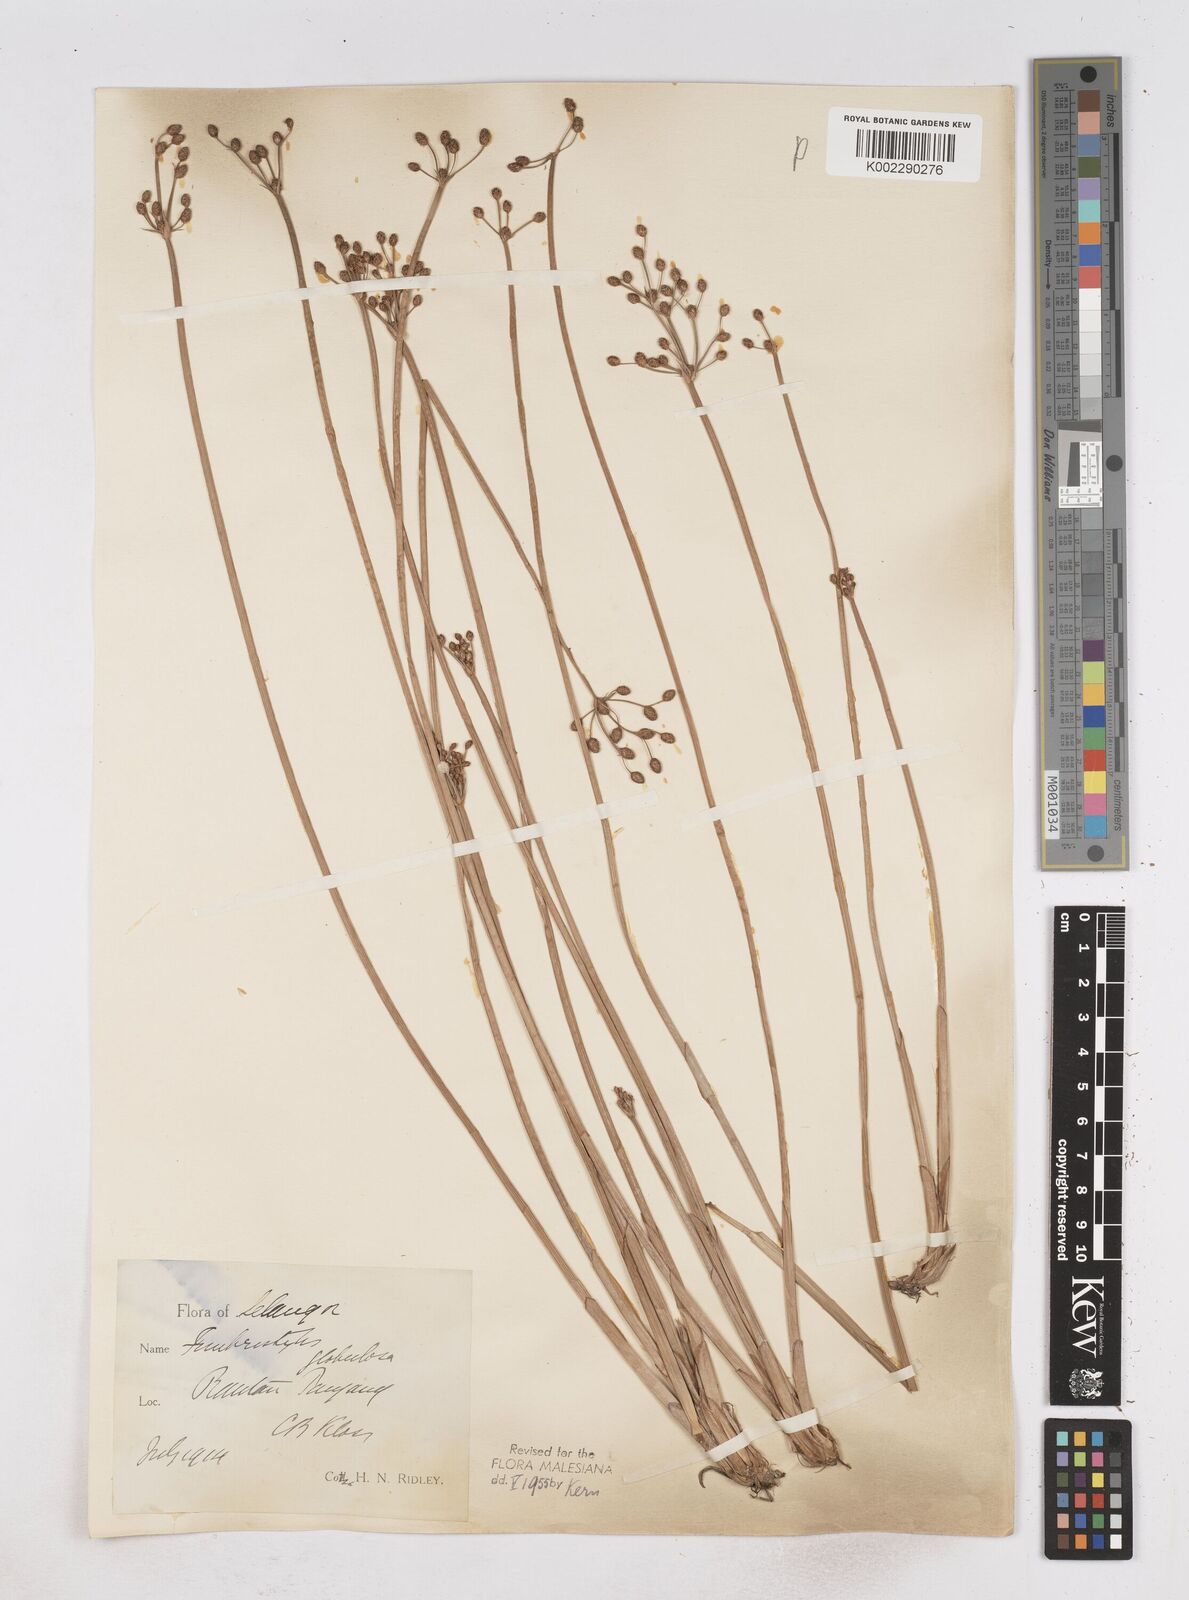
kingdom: Plantae
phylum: Tracheophyta
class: Liliopsida
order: Poales
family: Cyperaceae
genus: Fimbristylis
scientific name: Fimbristylis umbellaris
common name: Globular fimbristylis
